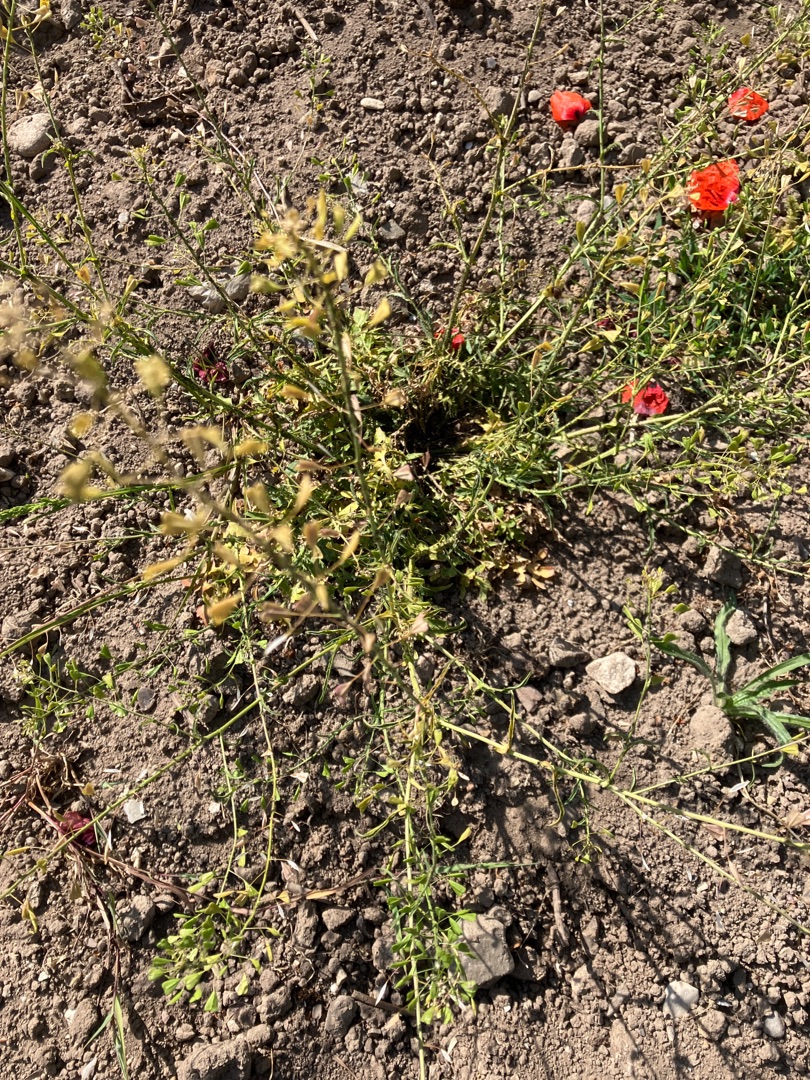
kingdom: Plantae
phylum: Tracheophyta
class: Magnoliopsida
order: Brassicales
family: Brassicaceae
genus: Capsella
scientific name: Capsella bursa-pastoris
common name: Hyrdetaske
